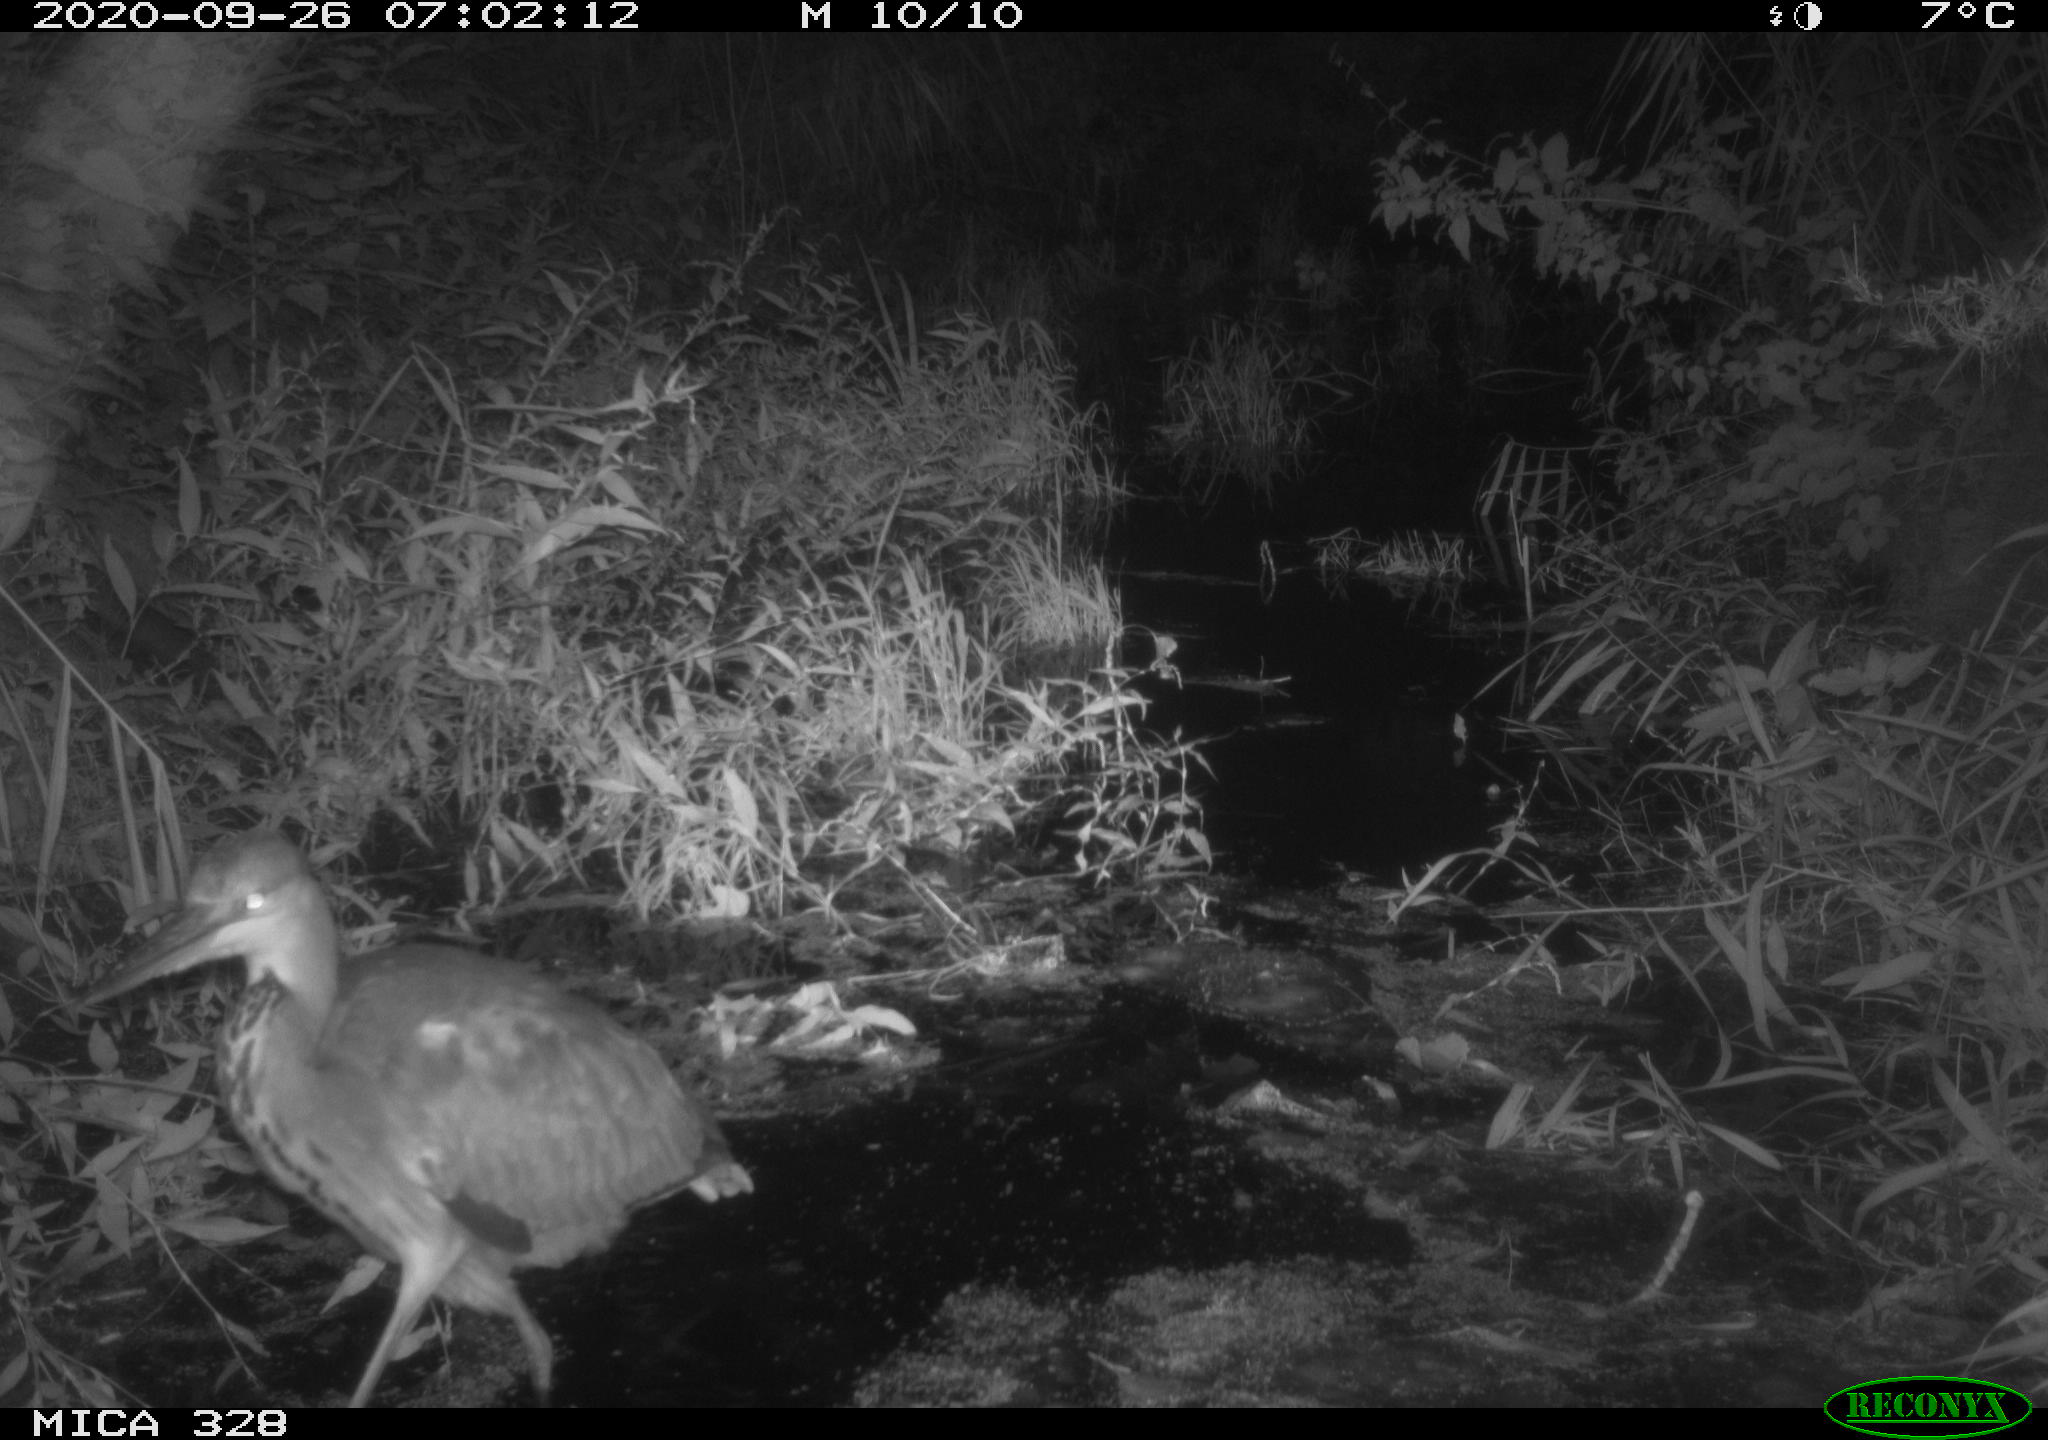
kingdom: Animalia
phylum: Chordata
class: Aves
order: Pelecaniformes
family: Ardeidae
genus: Ardea
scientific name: Ardea cinerea
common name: Grey heron
